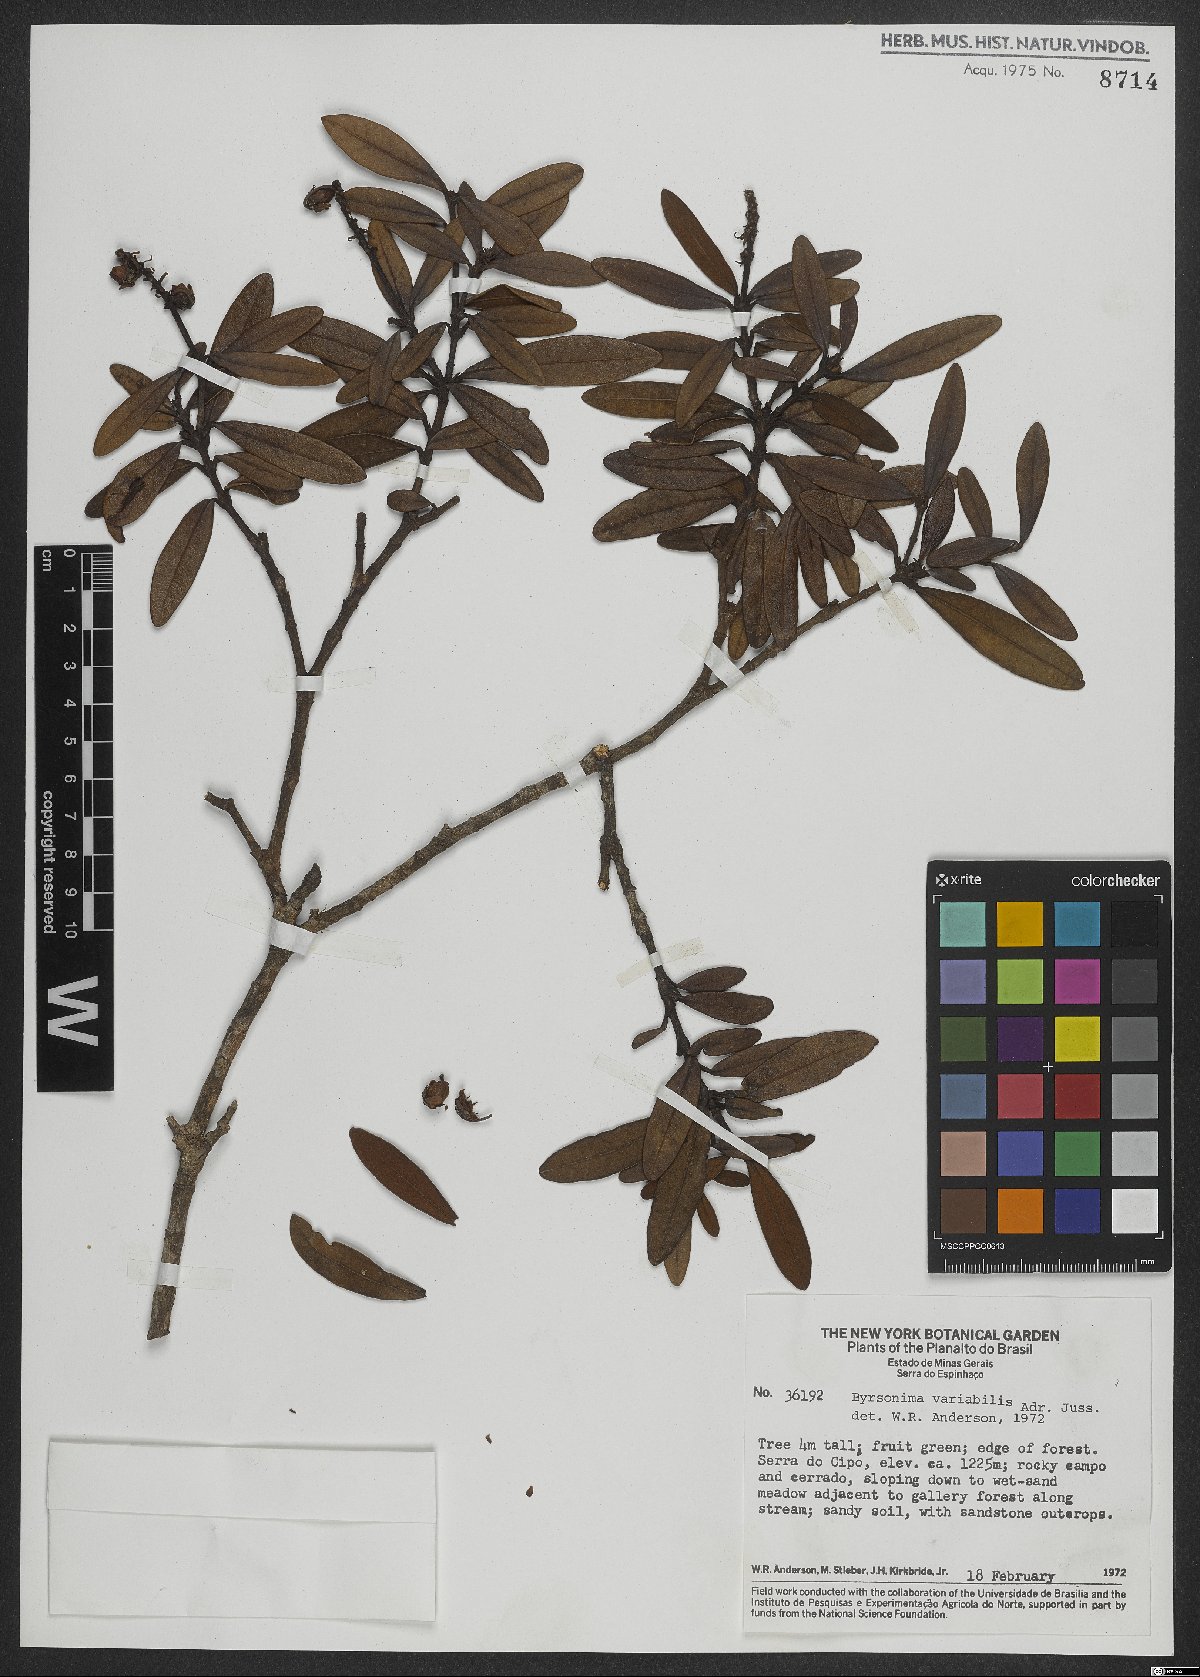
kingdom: Plantae
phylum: Tracheophyta
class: Magnoliopsida
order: Malpighiales
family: Malpighiaceae
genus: Byrsonima
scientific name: Byrsonima variabilis
